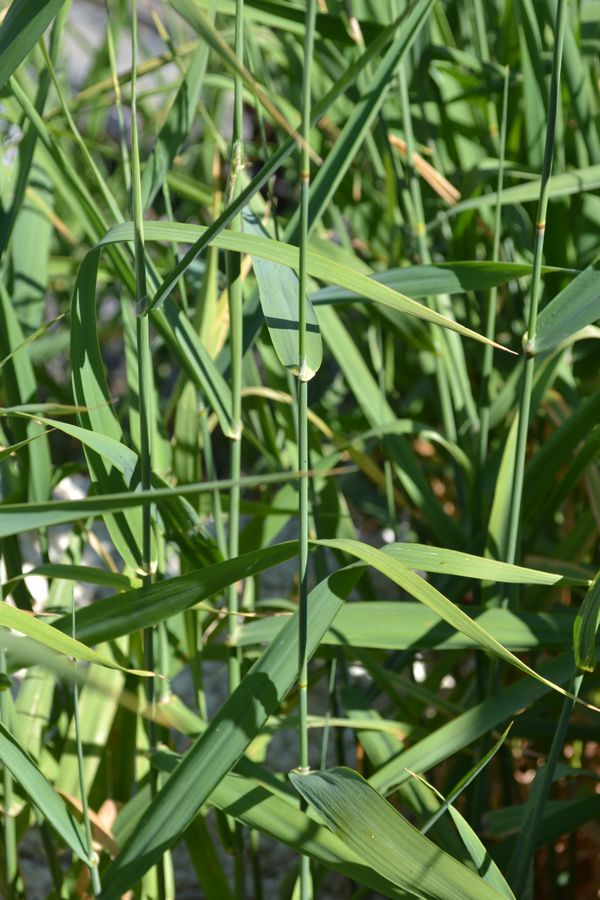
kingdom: Plantae
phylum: Tracheophyta
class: Liliopsida
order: Poales
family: Poaceae
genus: Phalaris
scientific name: Phalaris arundinacea
